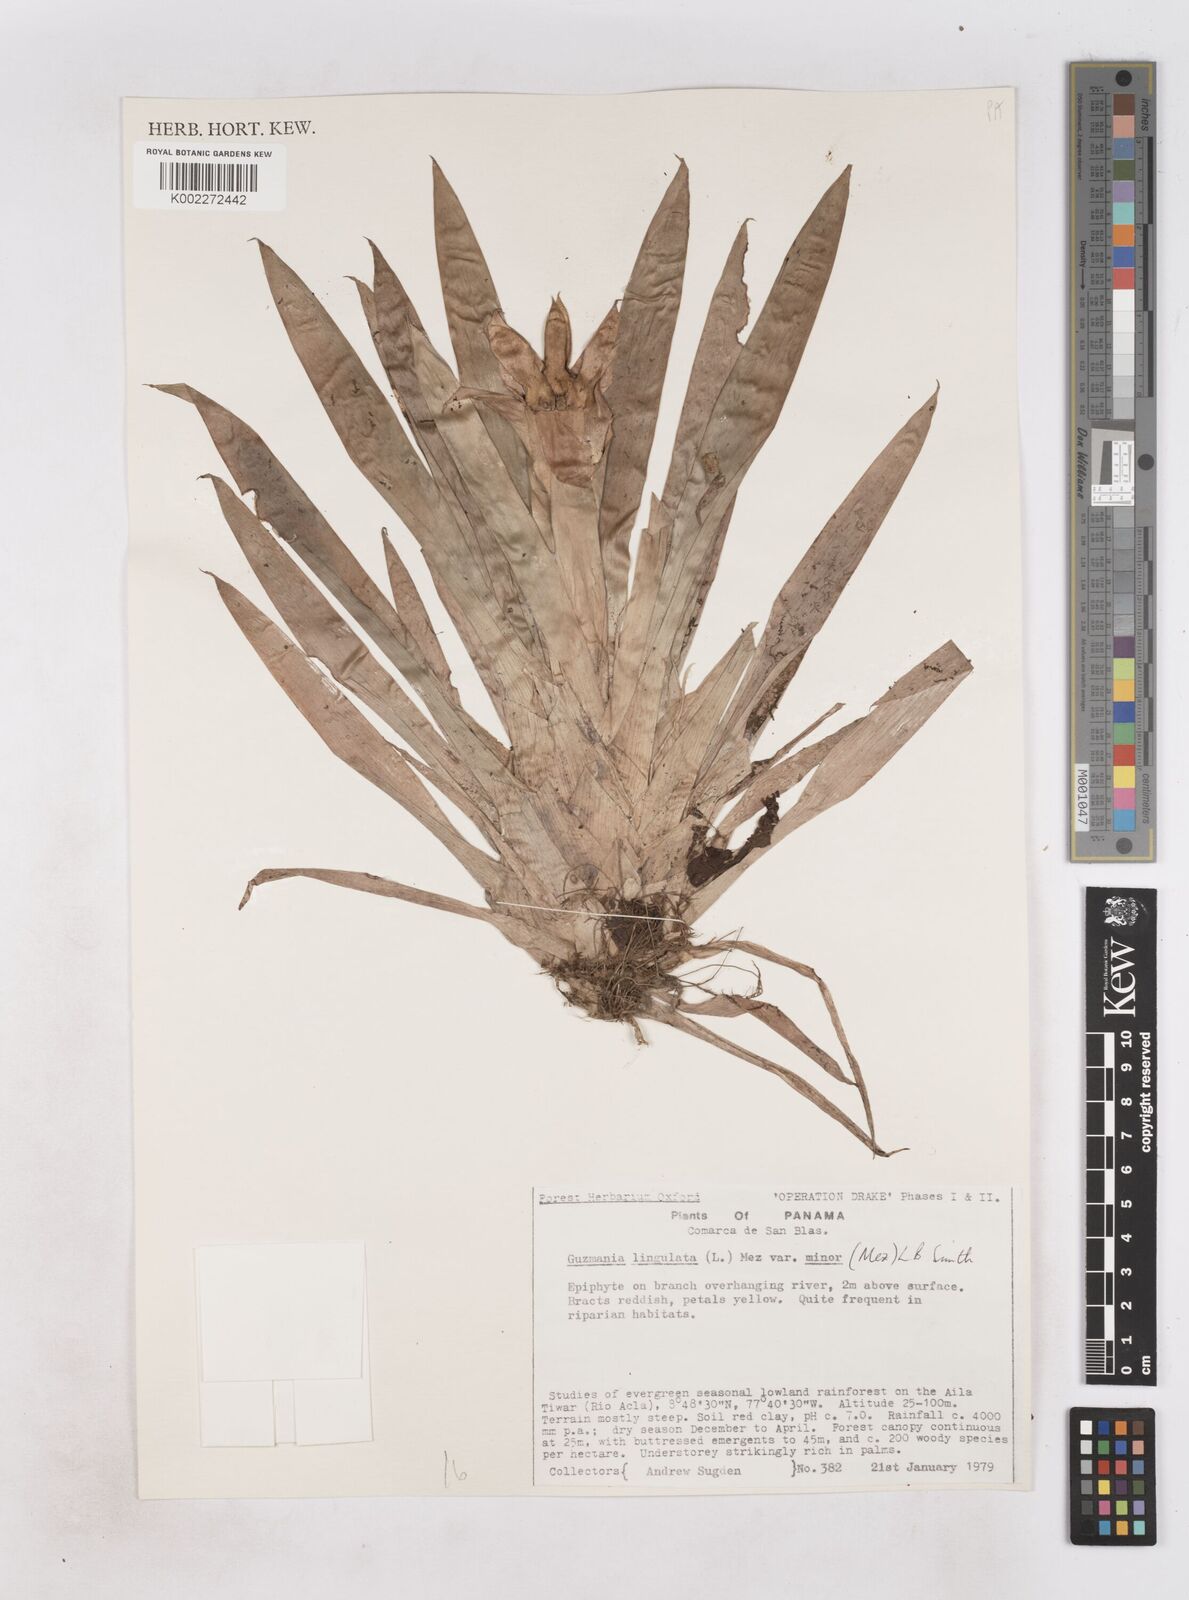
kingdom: Plantae
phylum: Tracheophyta
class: Liliopsida
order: Poales
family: Bromeliaceae
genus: Guzmania
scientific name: Guzmania lingulata
